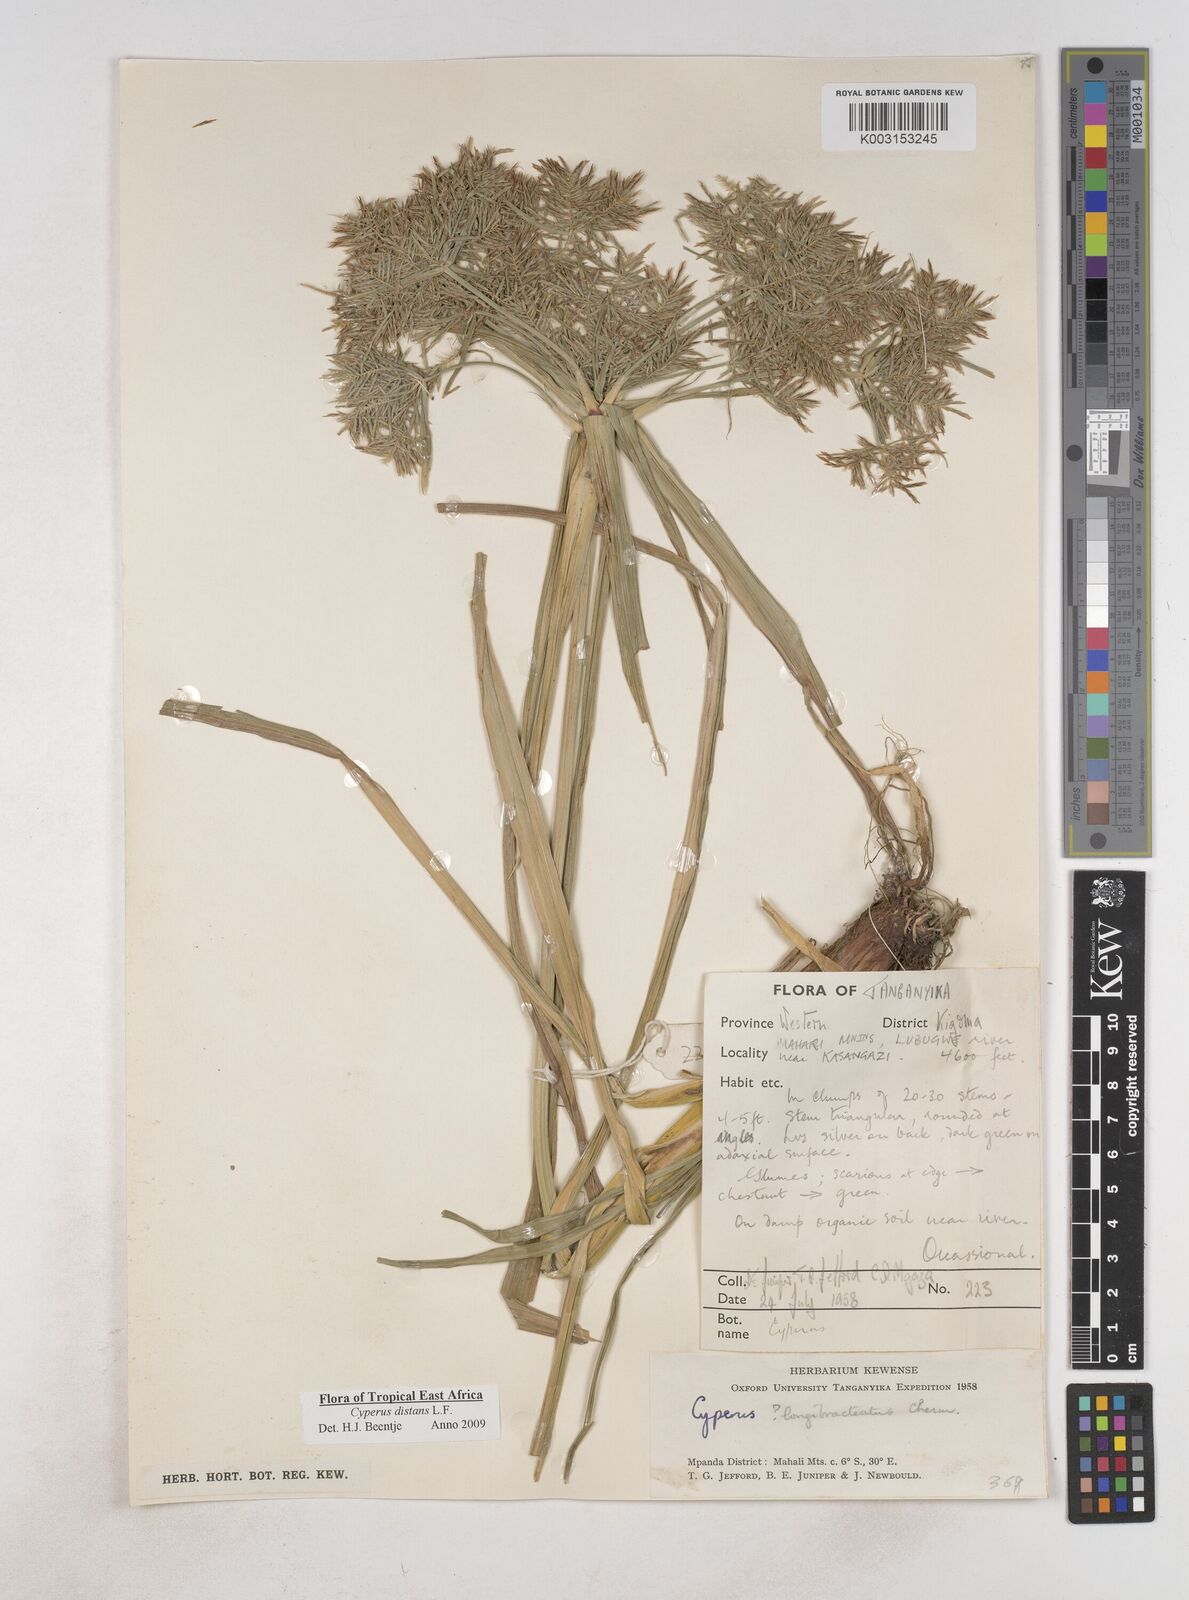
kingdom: Plantae
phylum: Tracheophyta
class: Liliopsida
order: Poales
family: Cyperaceae
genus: Cyperus
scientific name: Cyperus distans
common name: Slender cyperus
